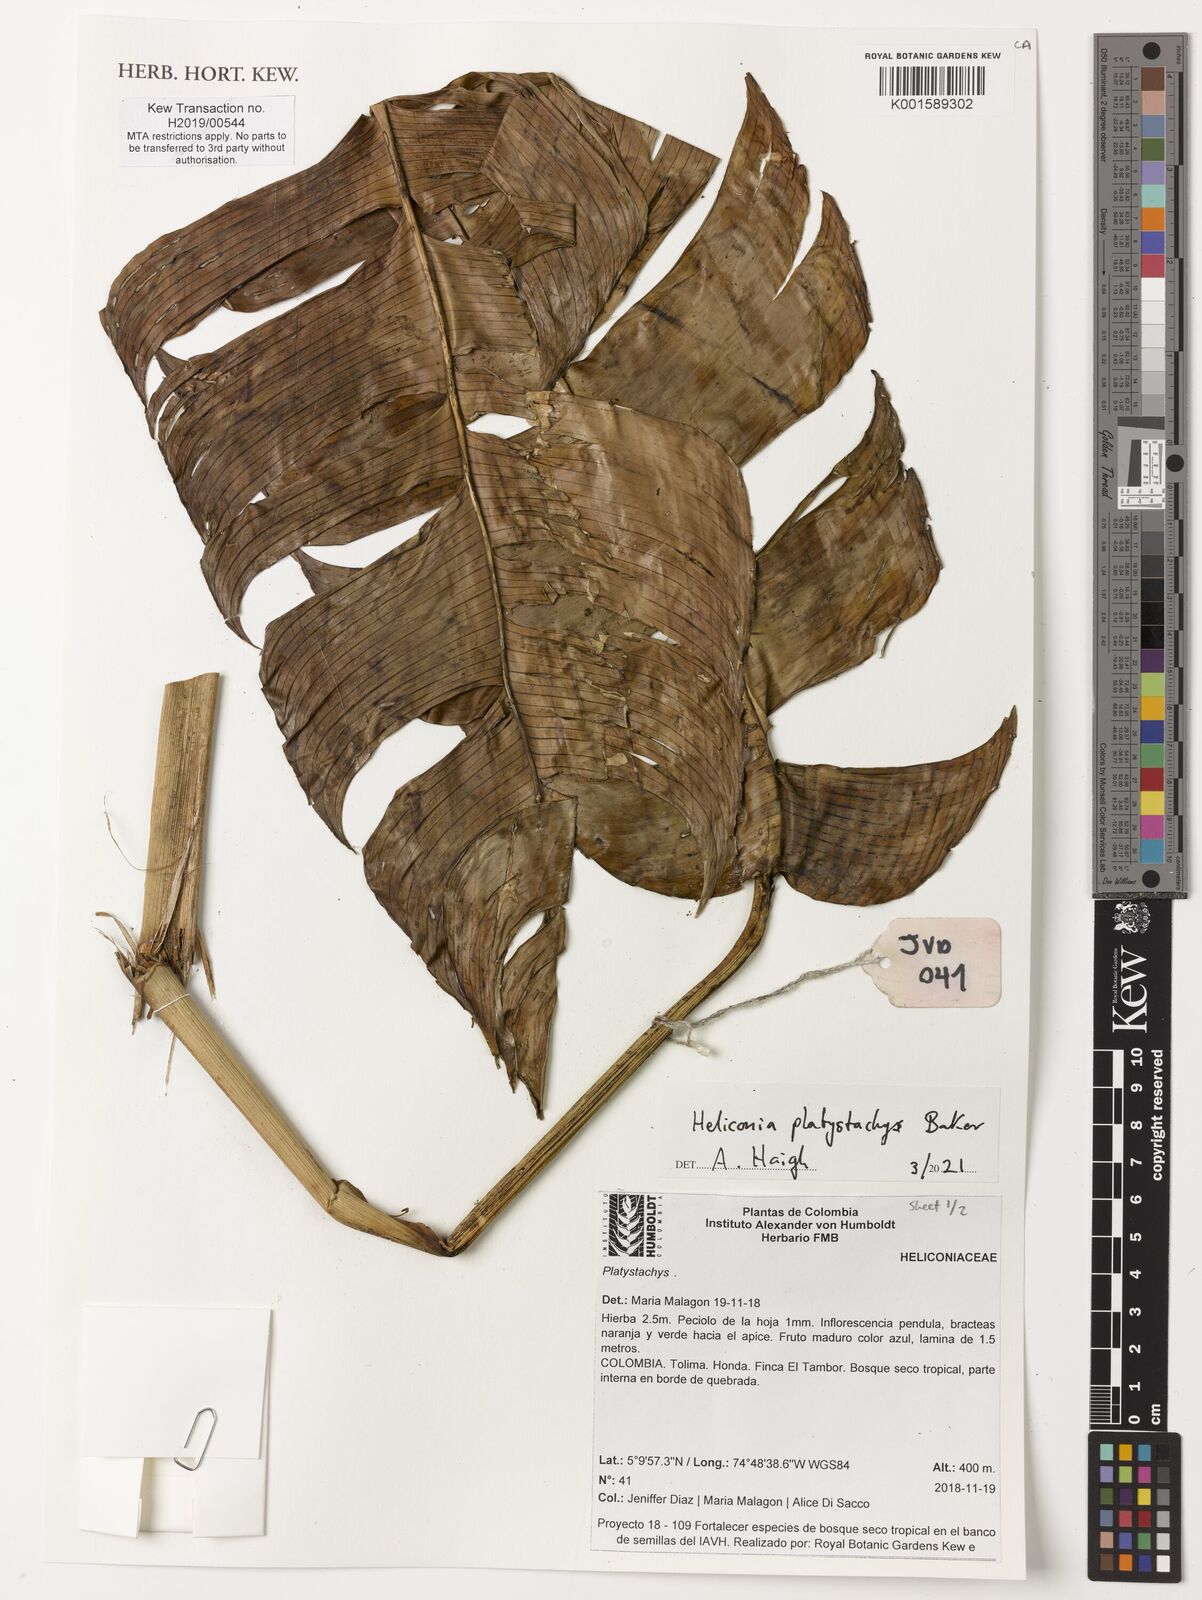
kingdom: Plantae
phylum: Tracheophyta
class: Liliopsida
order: Zingiberales
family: Heliconiaceae
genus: Heliconia
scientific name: Heliconia platystachys
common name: False bird of paradise
